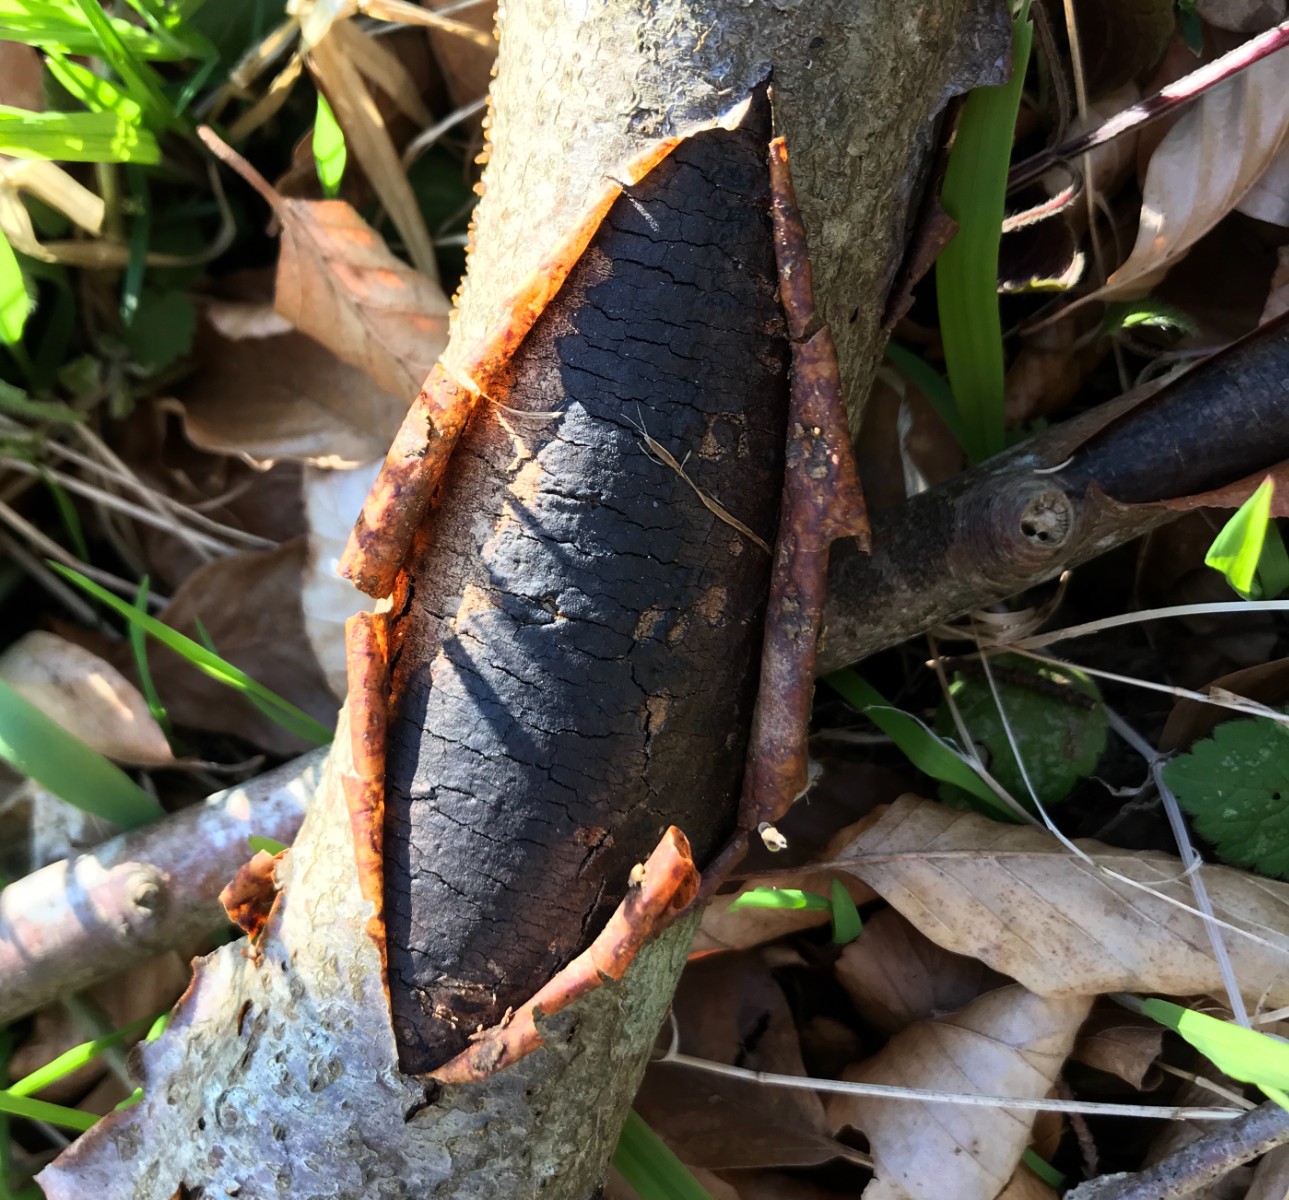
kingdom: Fungi
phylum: Ascomycota
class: Sordariomycetes
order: Xylariales
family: Diatrypaceae
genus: Diatrype
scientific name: Diatrype decorticata
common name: barksprænger-kulskorpe
